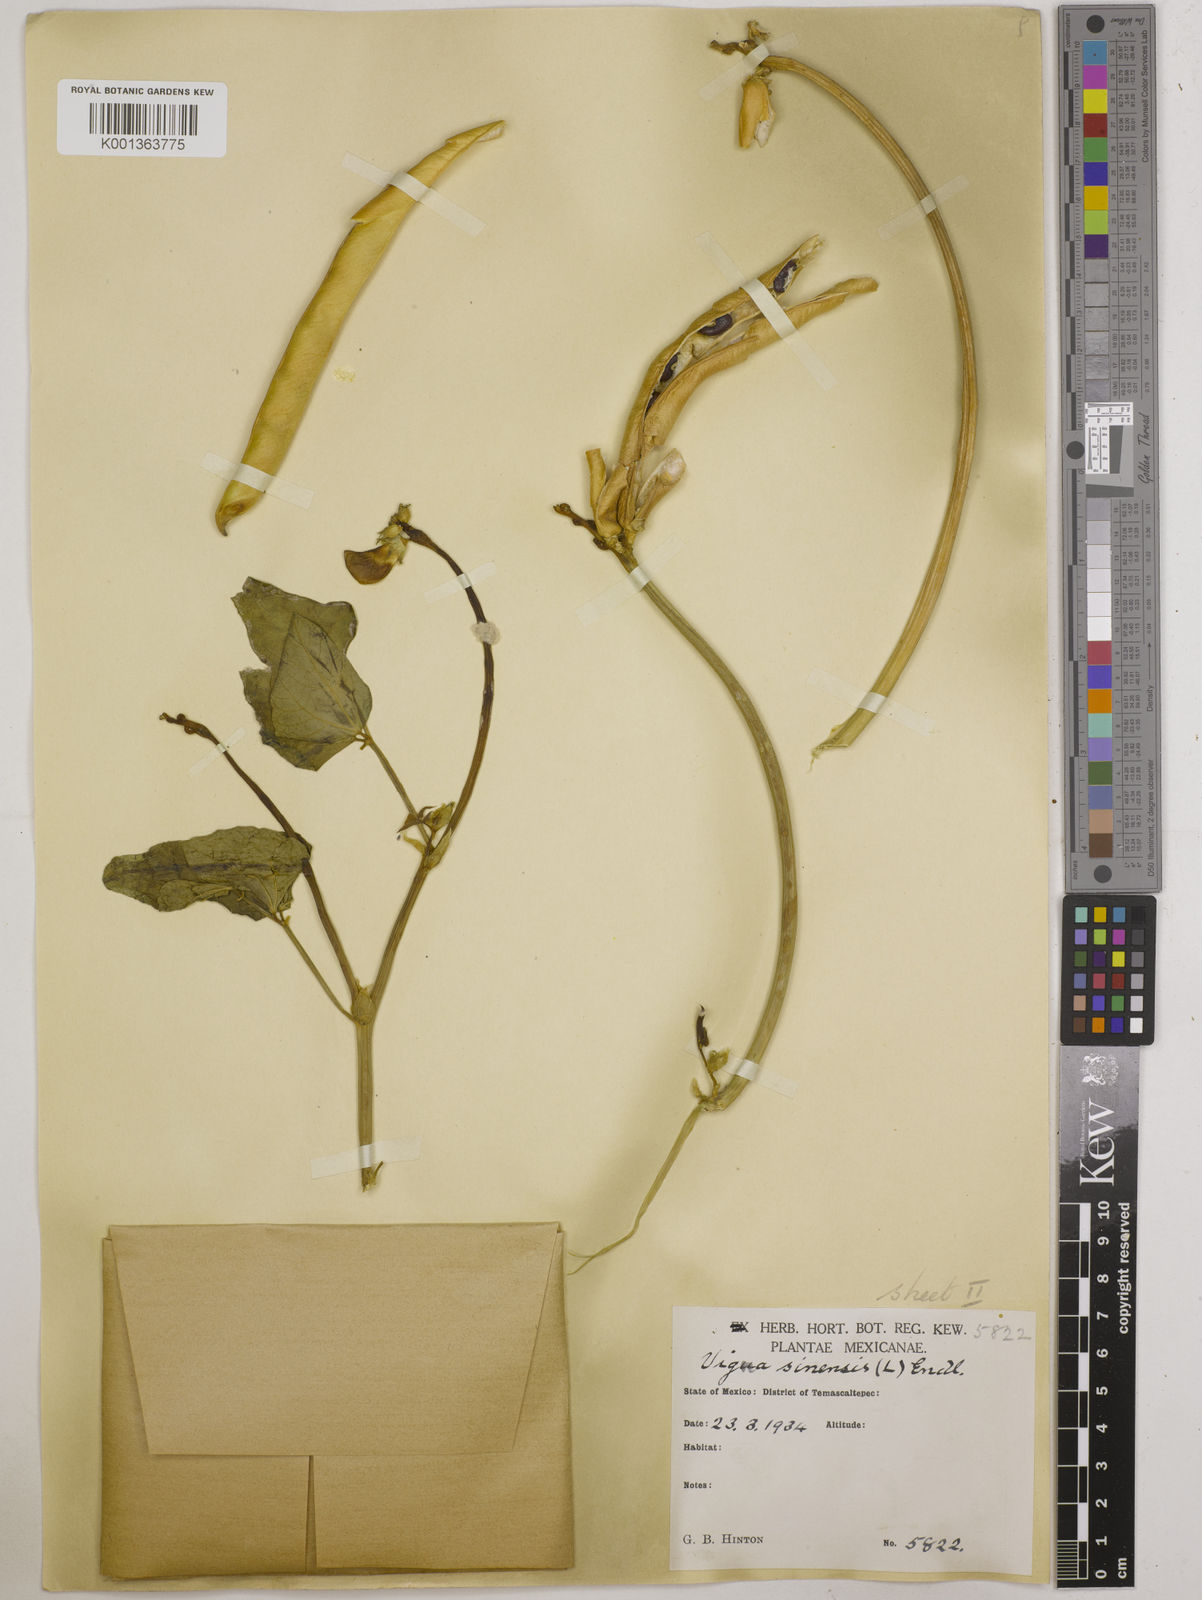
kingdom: Plantae
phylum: Tracheophyta
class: Magnoliopsida
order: Fabales
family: Fabaceae
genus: Vigna
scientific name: Vigna unguiculata
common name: Cowpea
